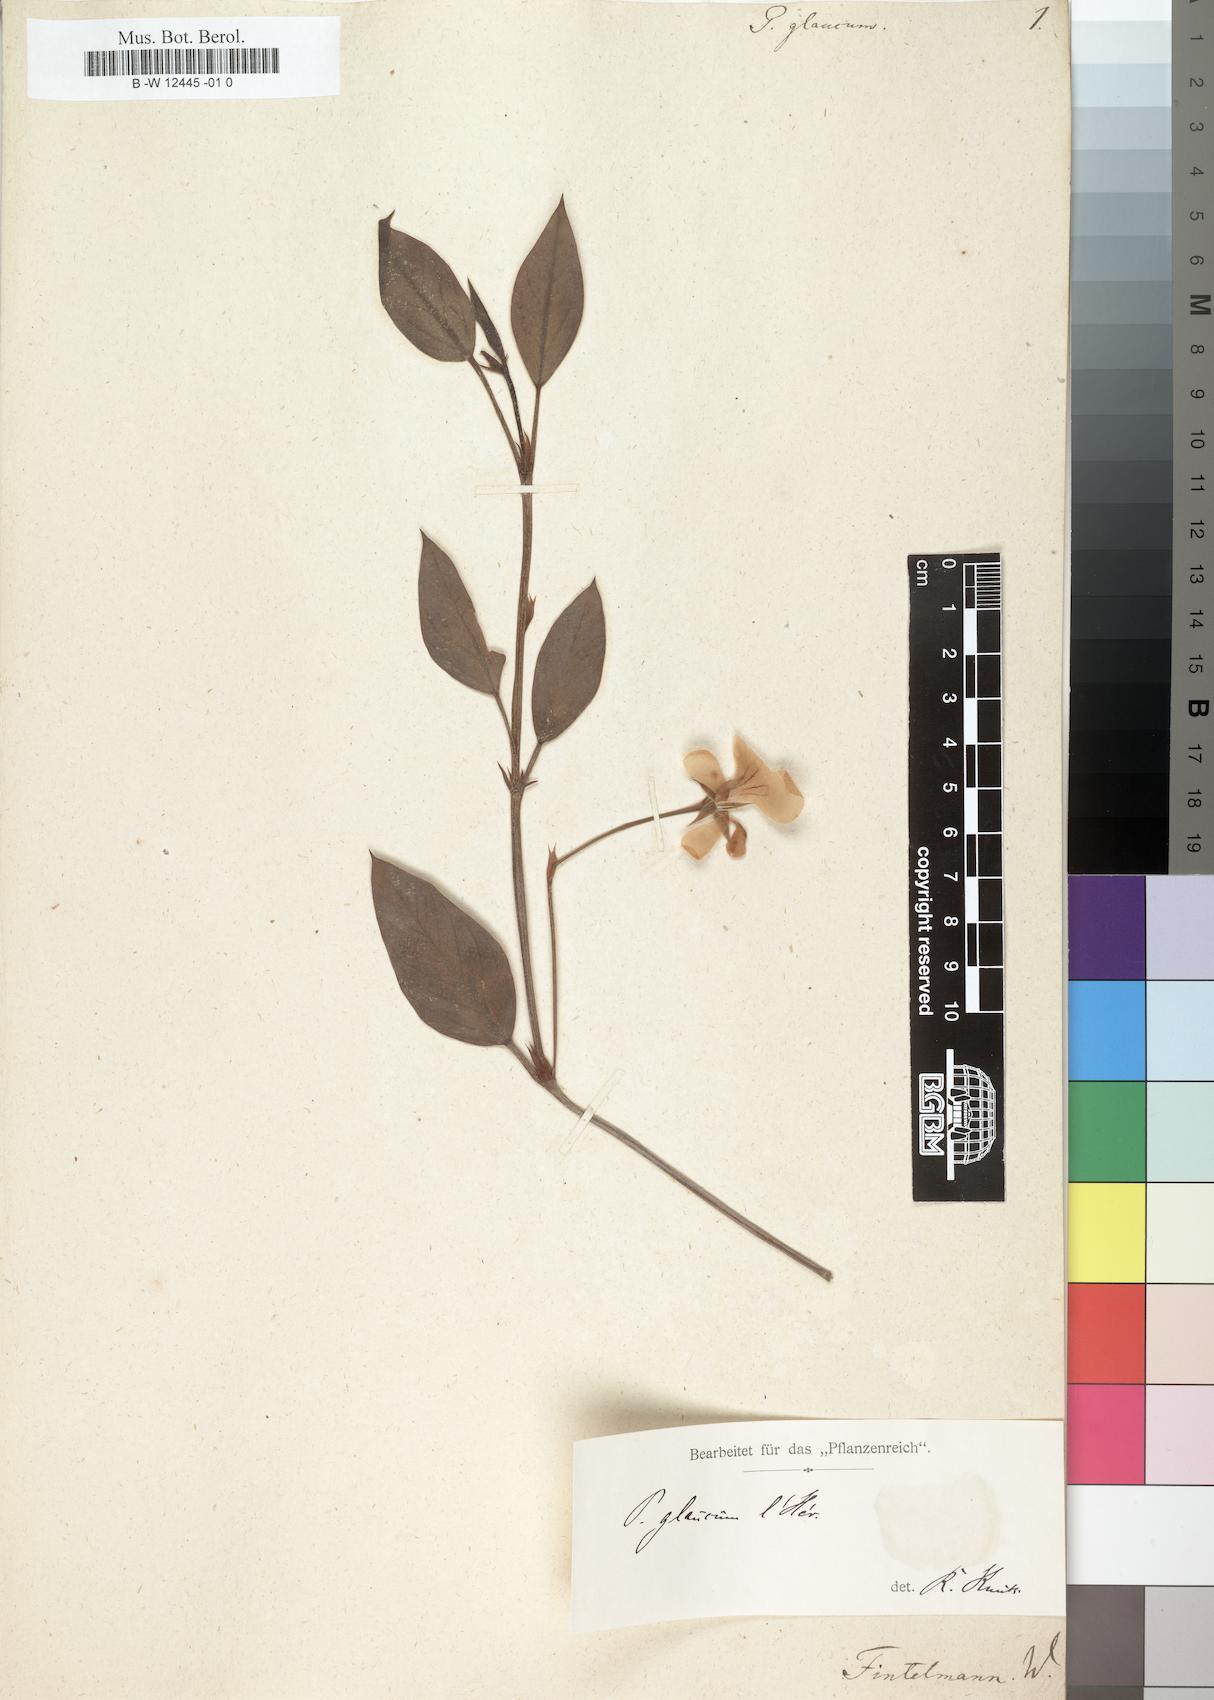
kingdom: Plantae
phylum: Tracheophyta
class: Magnoliopsida
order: Geraniales
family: Geraniaceae
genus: Pelargonium
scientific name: Pelargonium lanceolatum
